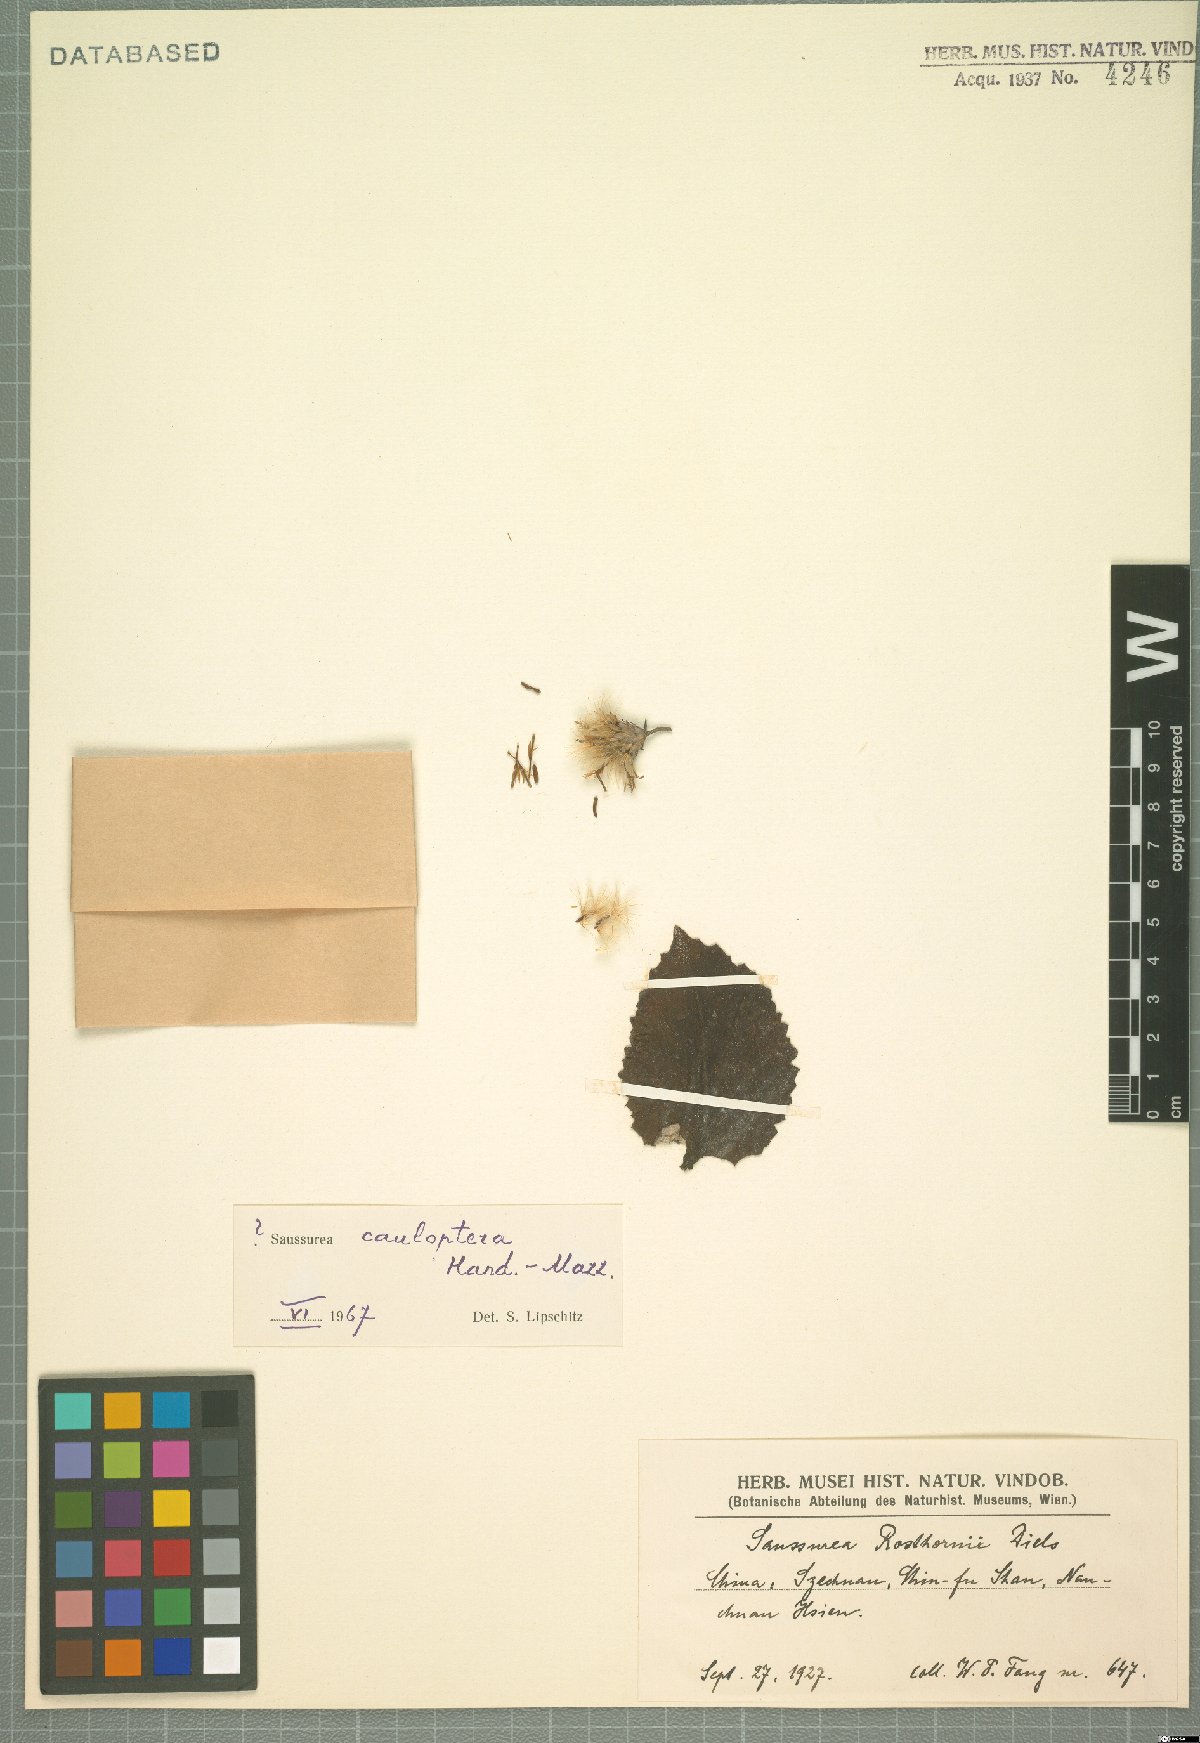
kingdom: Plantae
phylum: Tracheophyta
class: Magnoliopsida
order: Asterales
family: Asteraceae
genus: Saussurea
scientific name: Saussurea cauloptera
